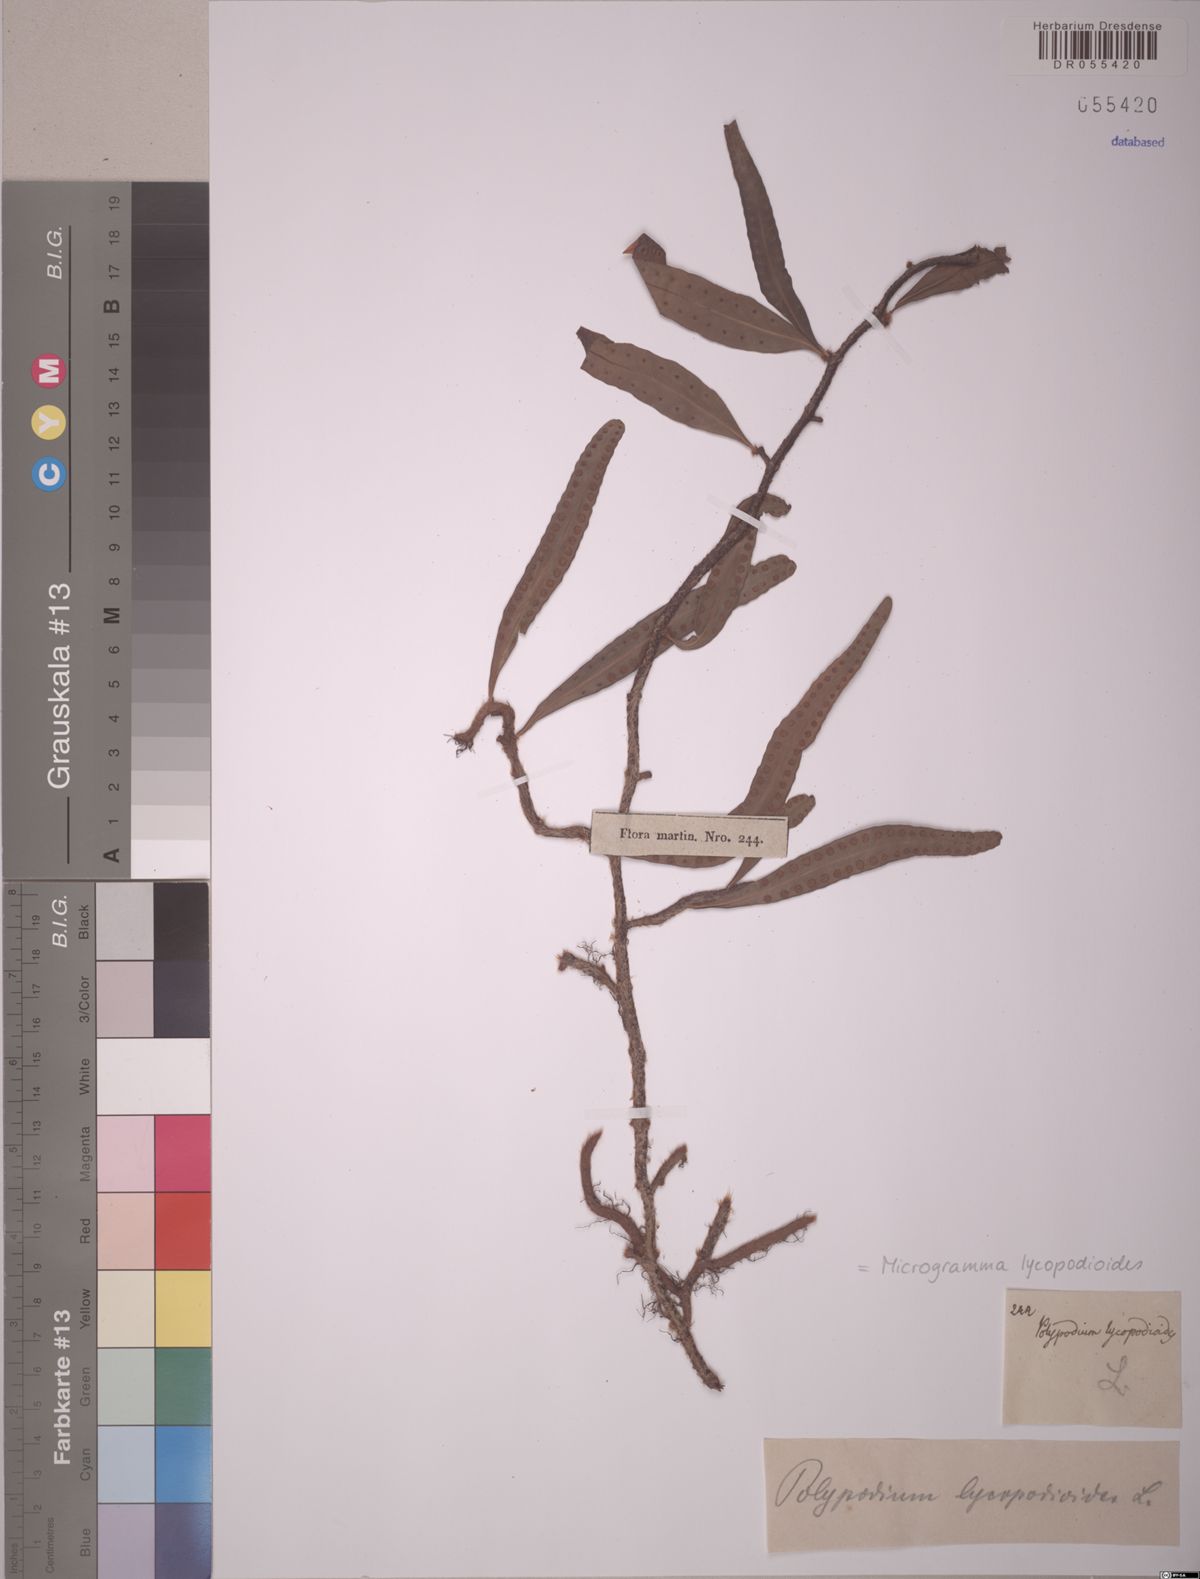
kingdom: Plantae
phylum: Tracheophyta
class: Polypodiopsida
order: Polypodiales
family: Polypodiaceae
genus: Microgramma
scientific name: Microgramma lycopodioides
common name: Bastard catclaw
